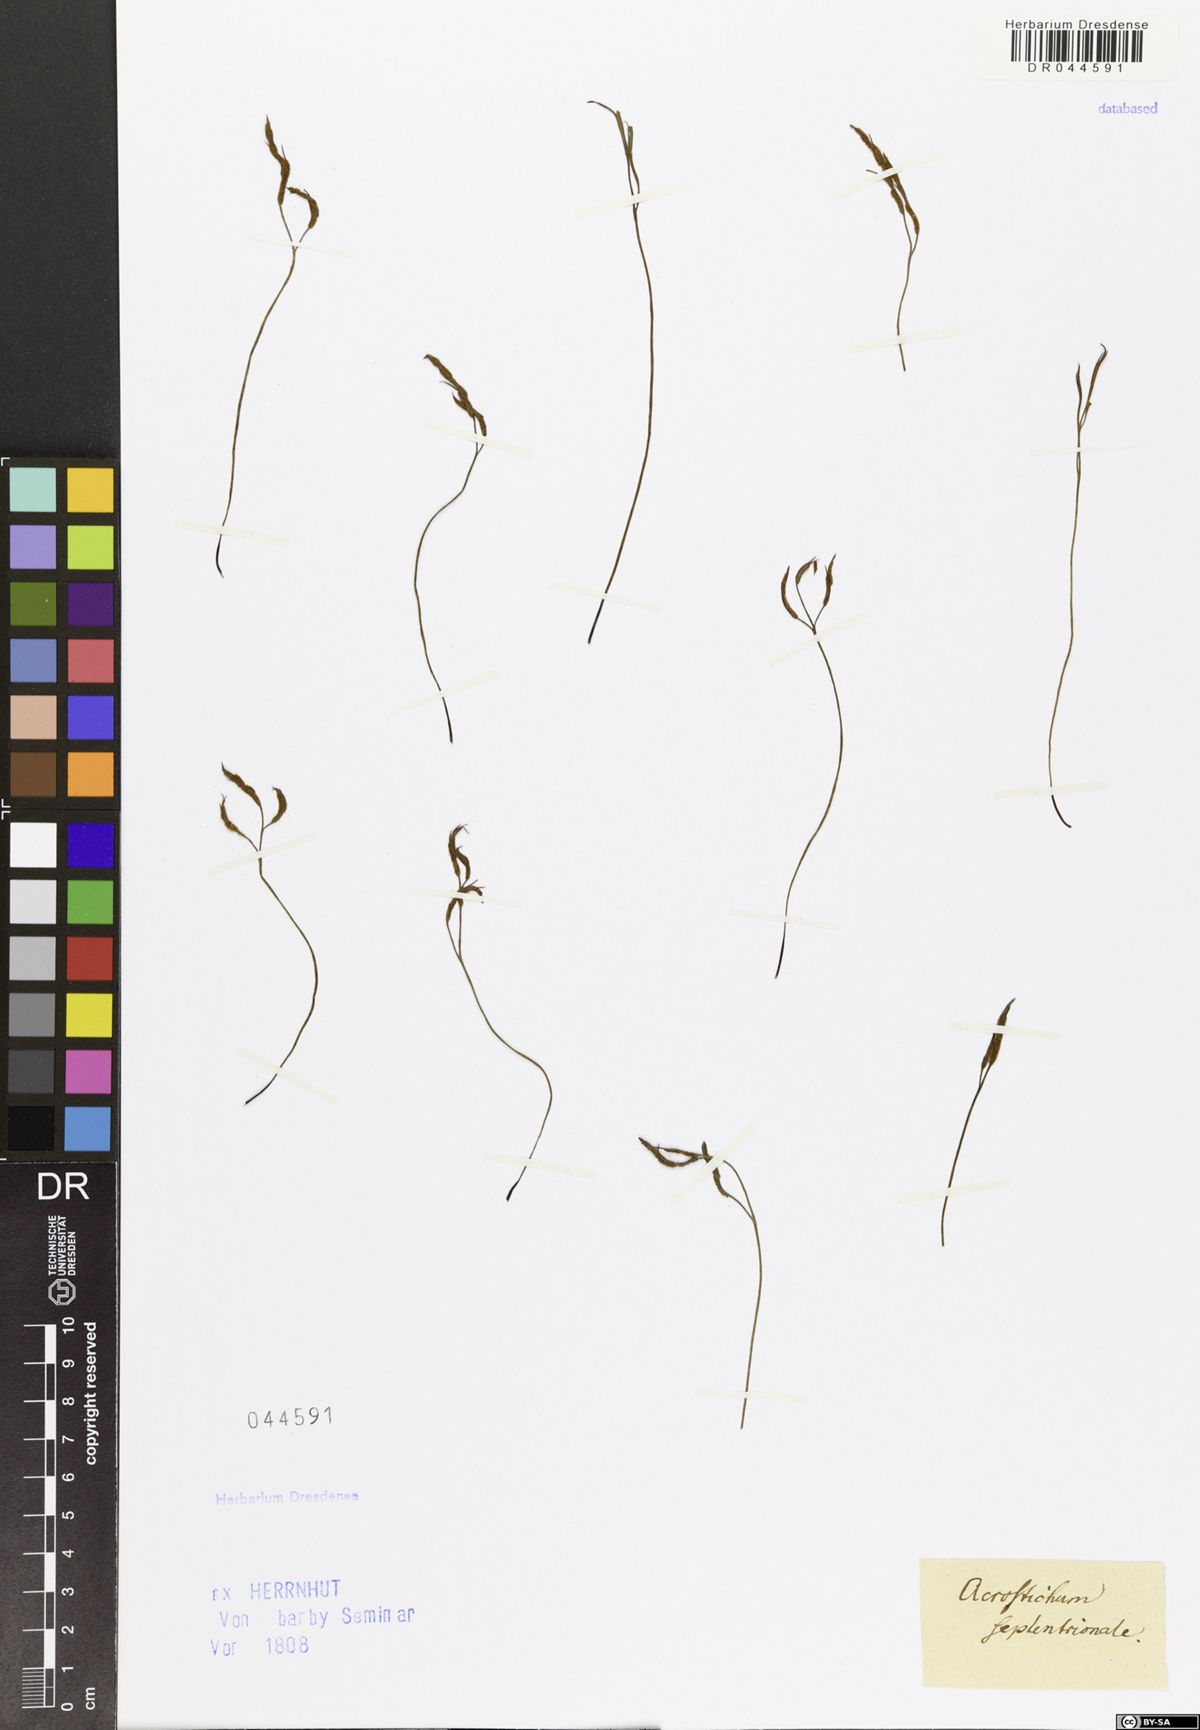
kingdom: Plantae
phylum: Tracheophyta
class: Polypodiopsida
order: Polypodiales
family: Aspleniaceae
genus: Asplenium
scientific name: Asplenium septentrionale
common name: Forked spleenwort
